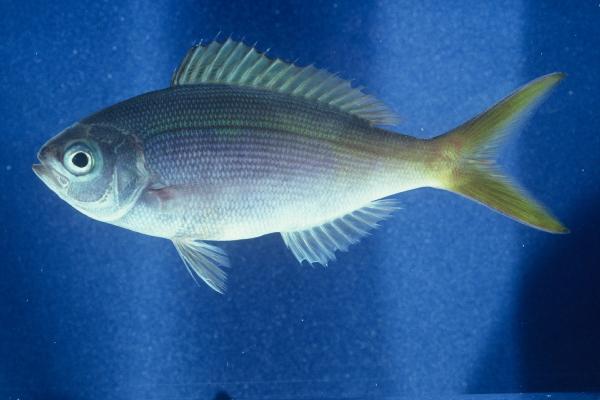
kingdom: Animalia
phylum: Chordata
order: Perciformes
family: Lutjanidae
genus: Paracaesio
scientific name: Paracaesio xanthura
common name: Yellowtail blue snapper
